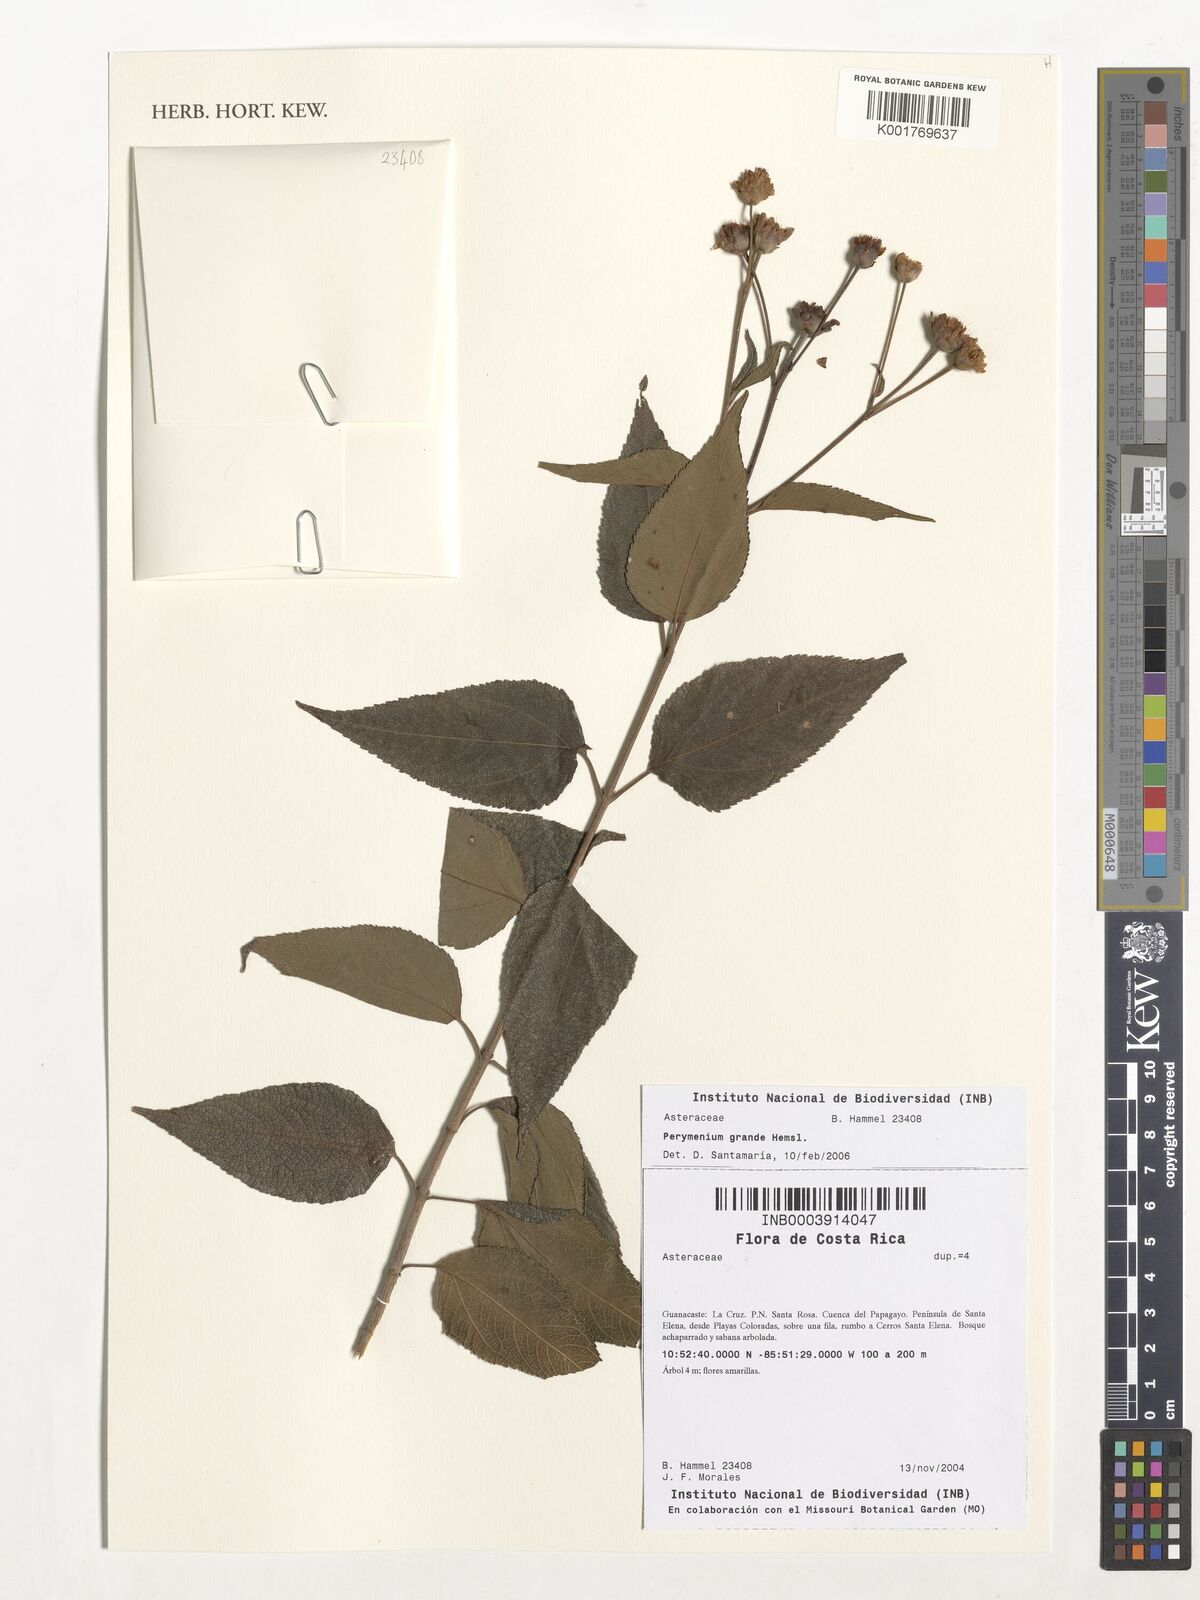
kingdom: Plantae
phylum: Tracheophyta
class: Magnoliopsida
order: Asterales
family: Asteraceae
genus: Perymenium
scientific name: Perymenium grande
